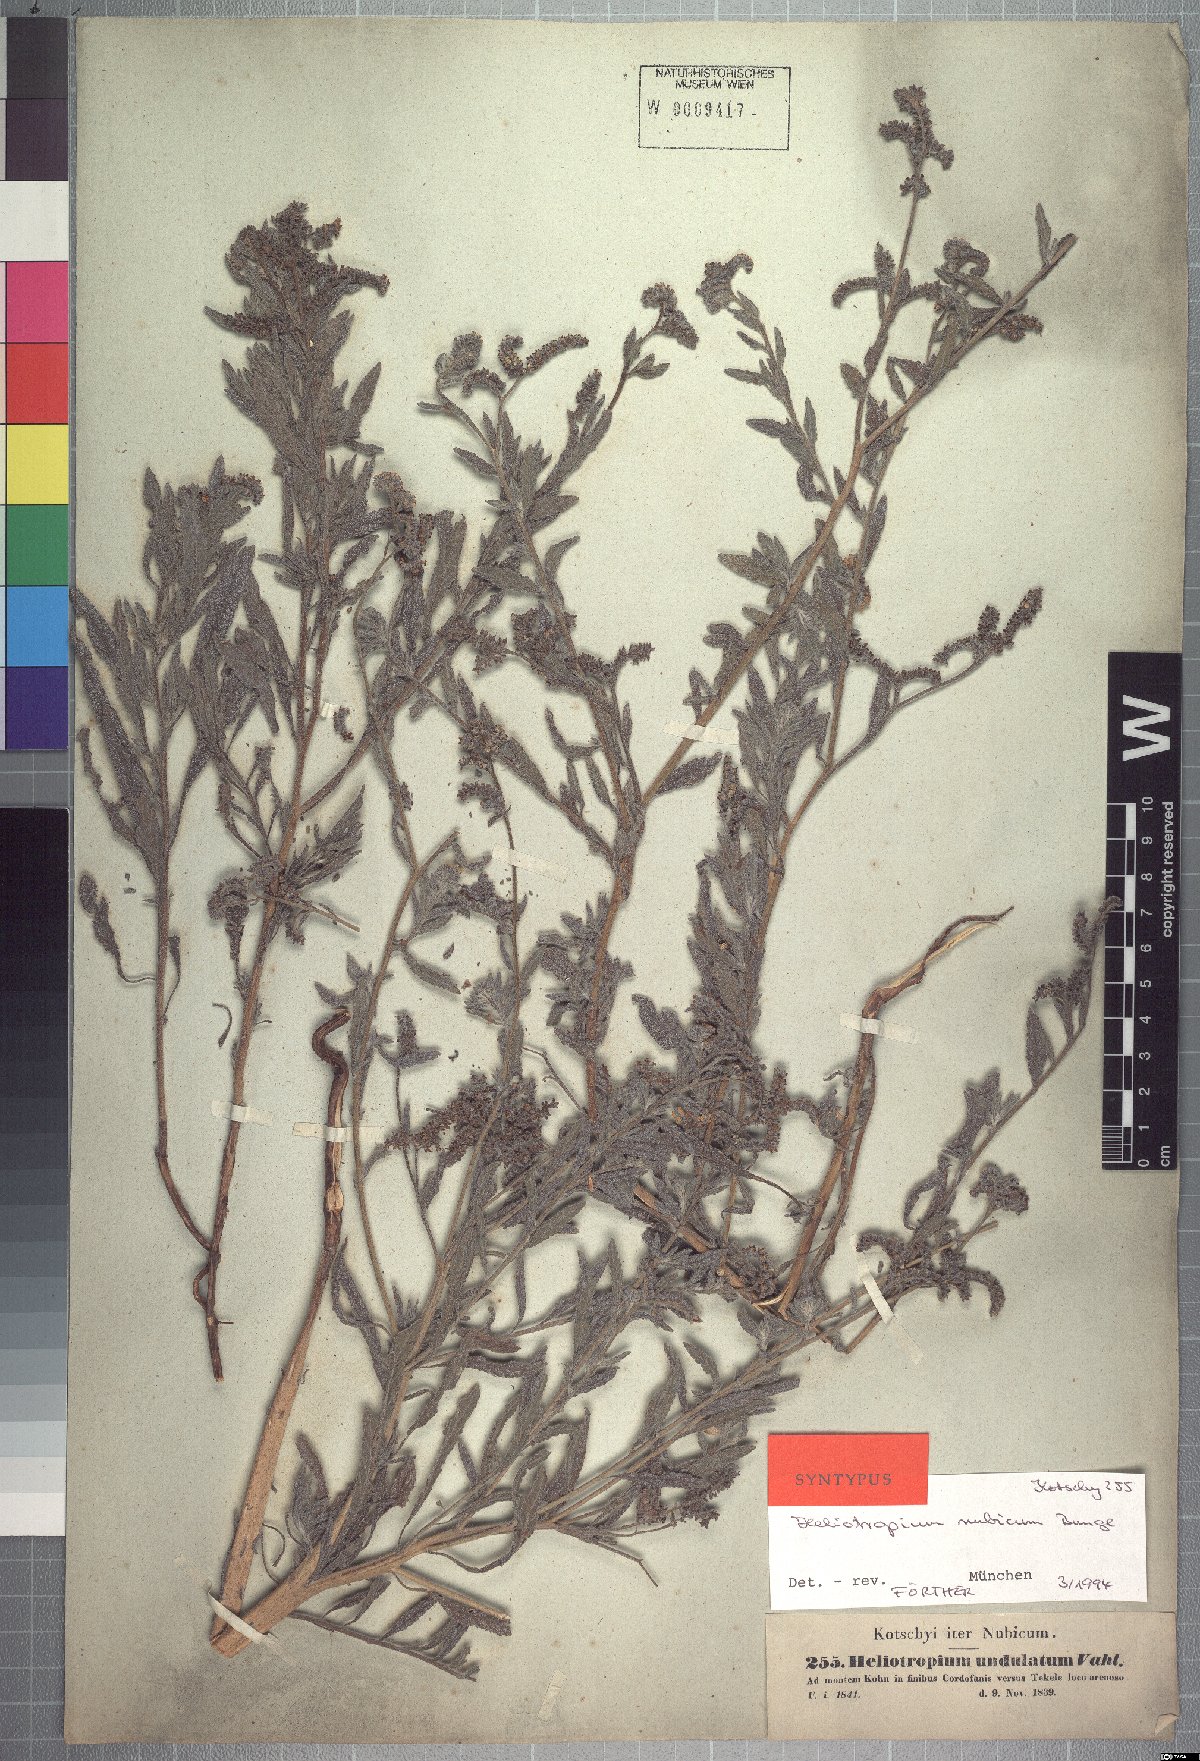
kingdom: Plantae
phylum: Tracheophyta
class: Magnoliopsida
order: Boraginales
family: Heliotropiaceae
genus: Heliotropium
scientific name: Heliotropium bacciferum
